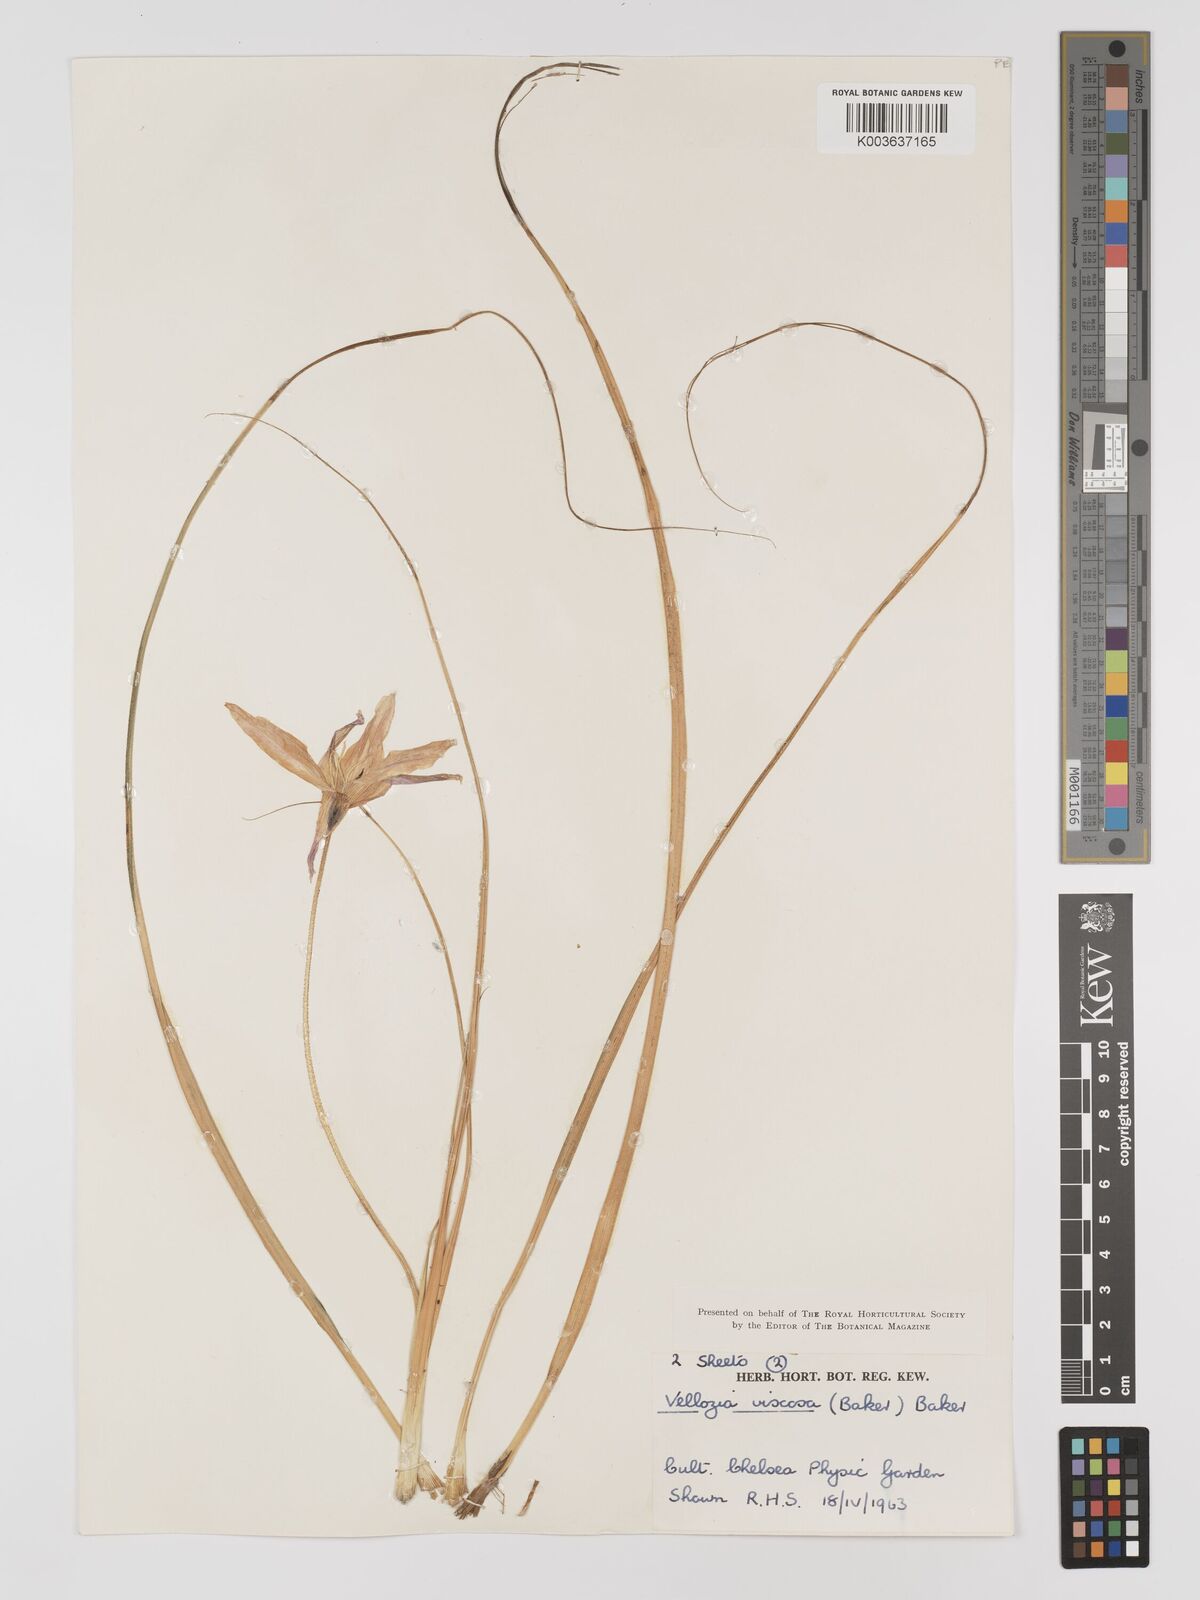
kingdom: Plantae
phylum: Tracheophyta
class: Liliopsida
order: Pandanales
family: Velloziaceae
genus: Xerophyta
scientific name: Xerophyta viscosa
